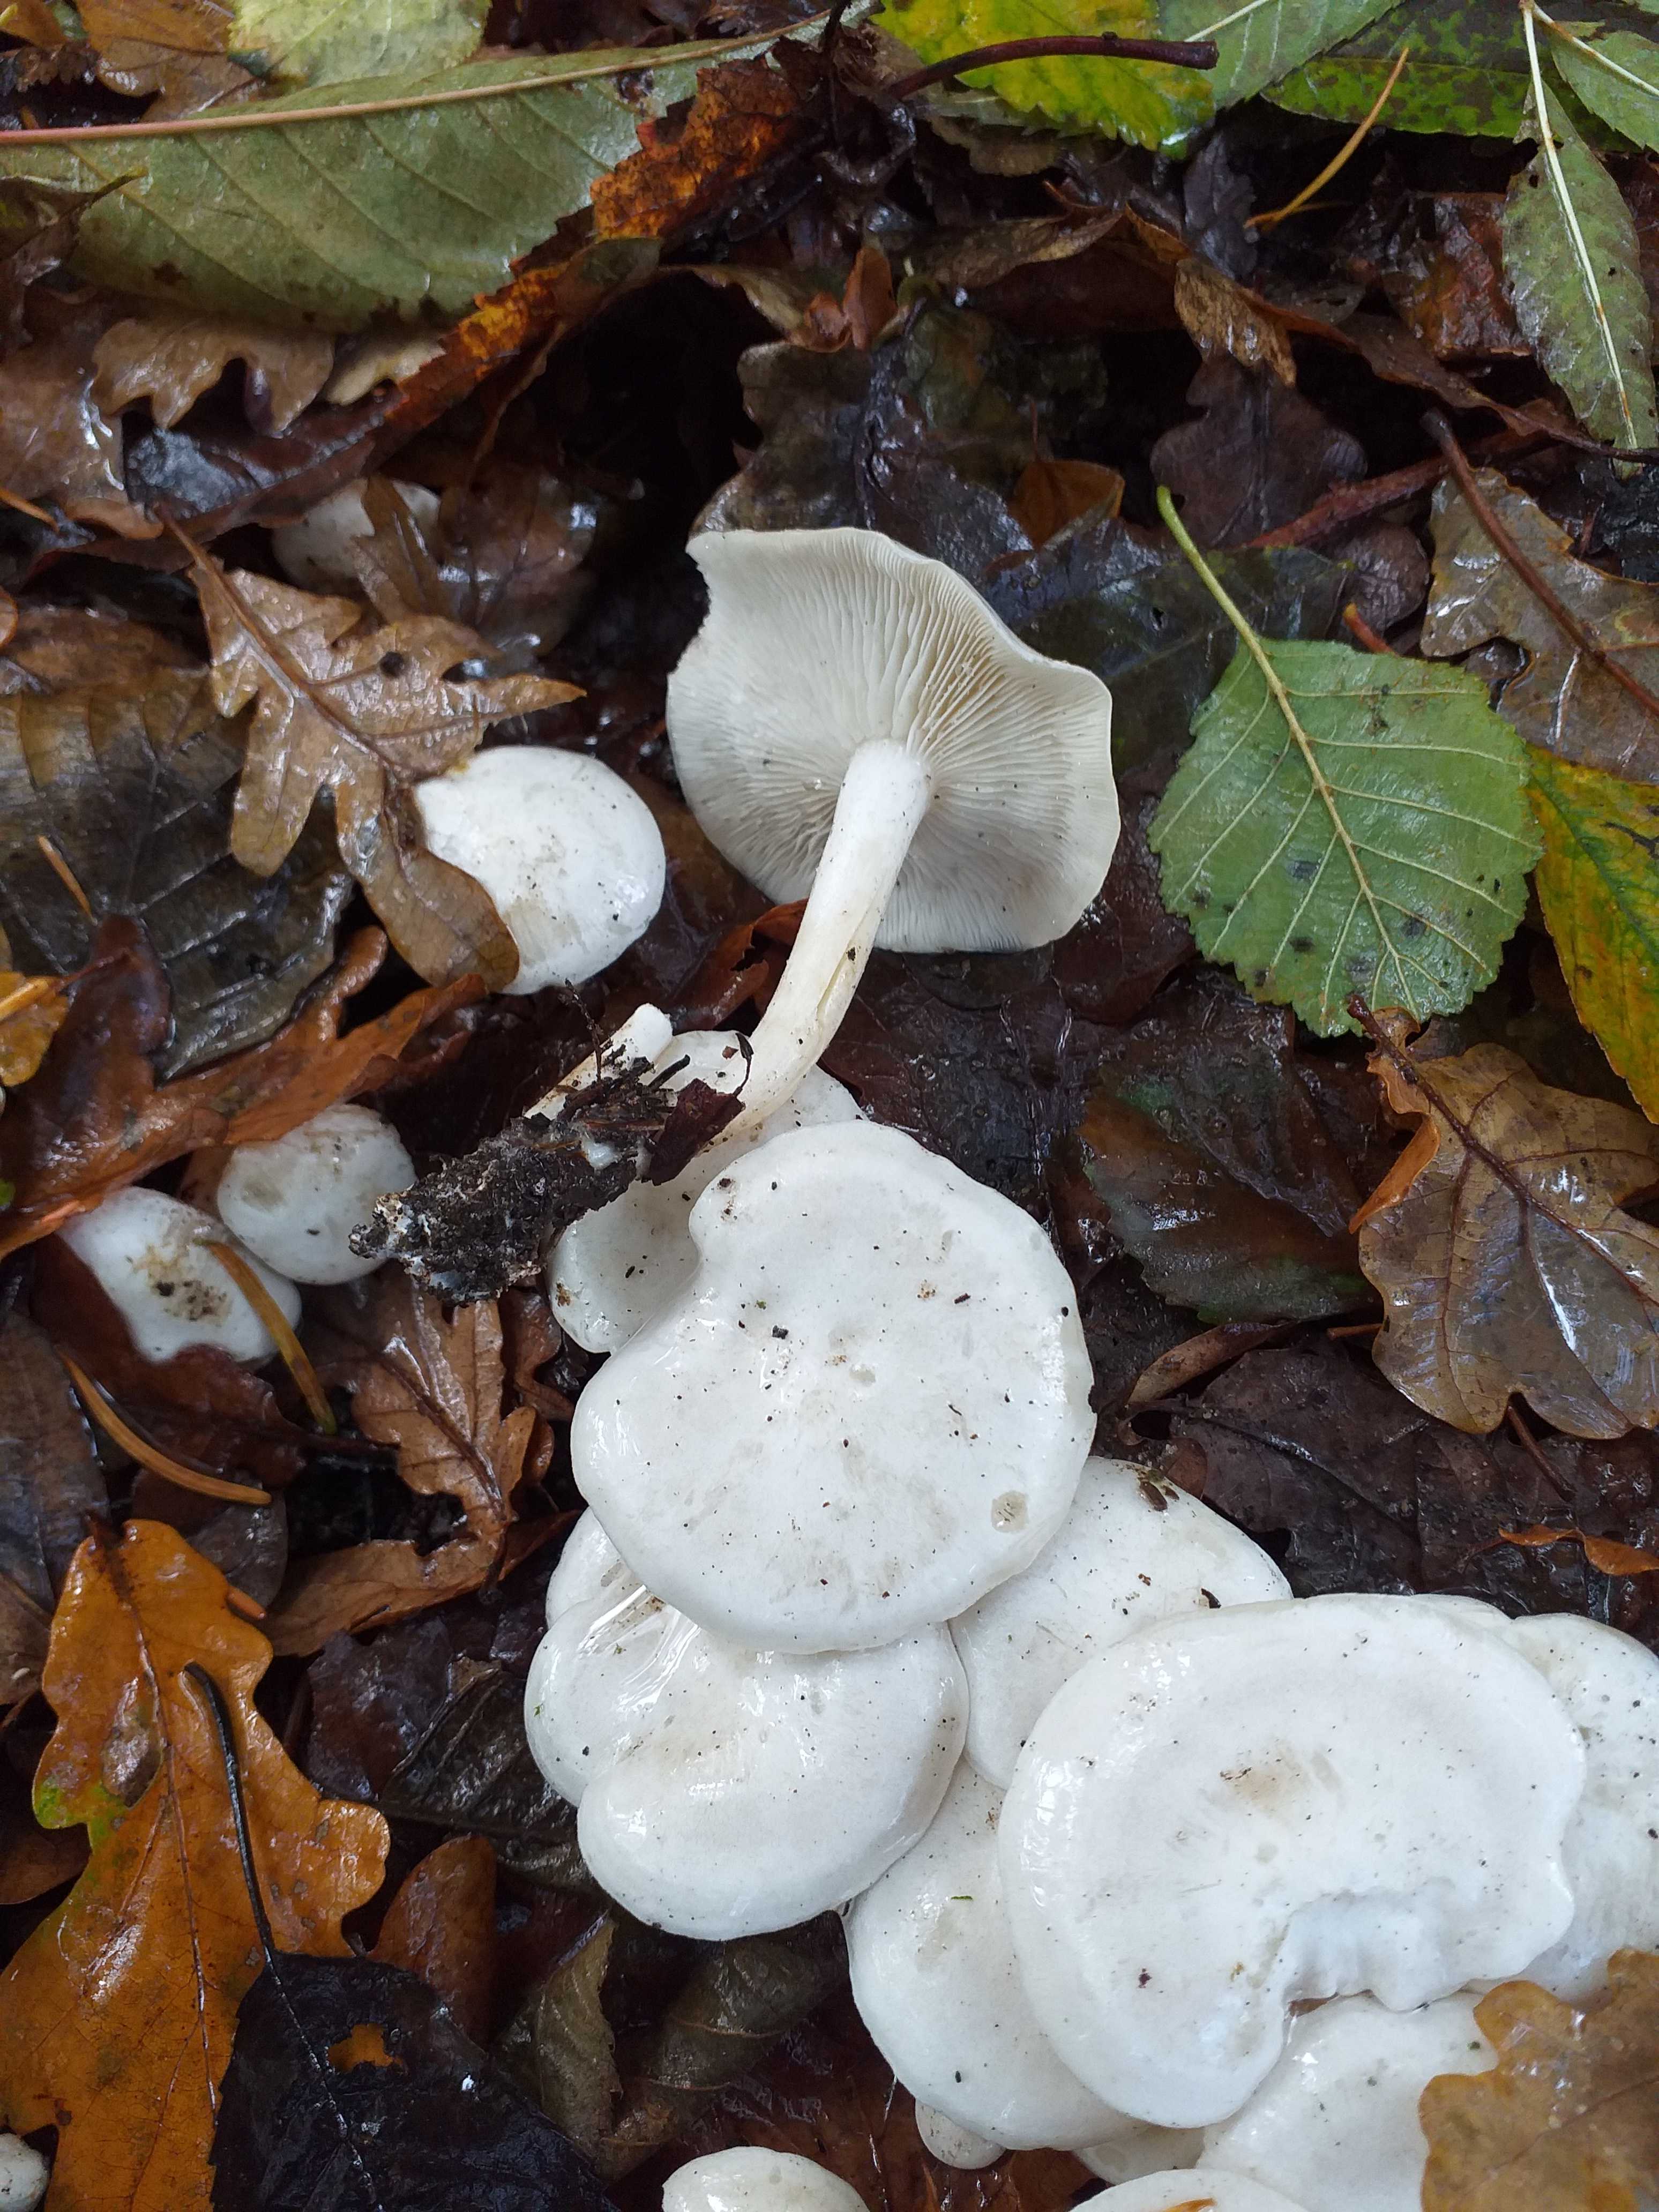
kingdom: Fungi
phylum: Basidiomycota
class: Agaricomycetes
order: Agaricales
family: Tricholomataceae
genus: Leucocybe
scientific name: Leucocybe connata
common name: knippe-tragthat
